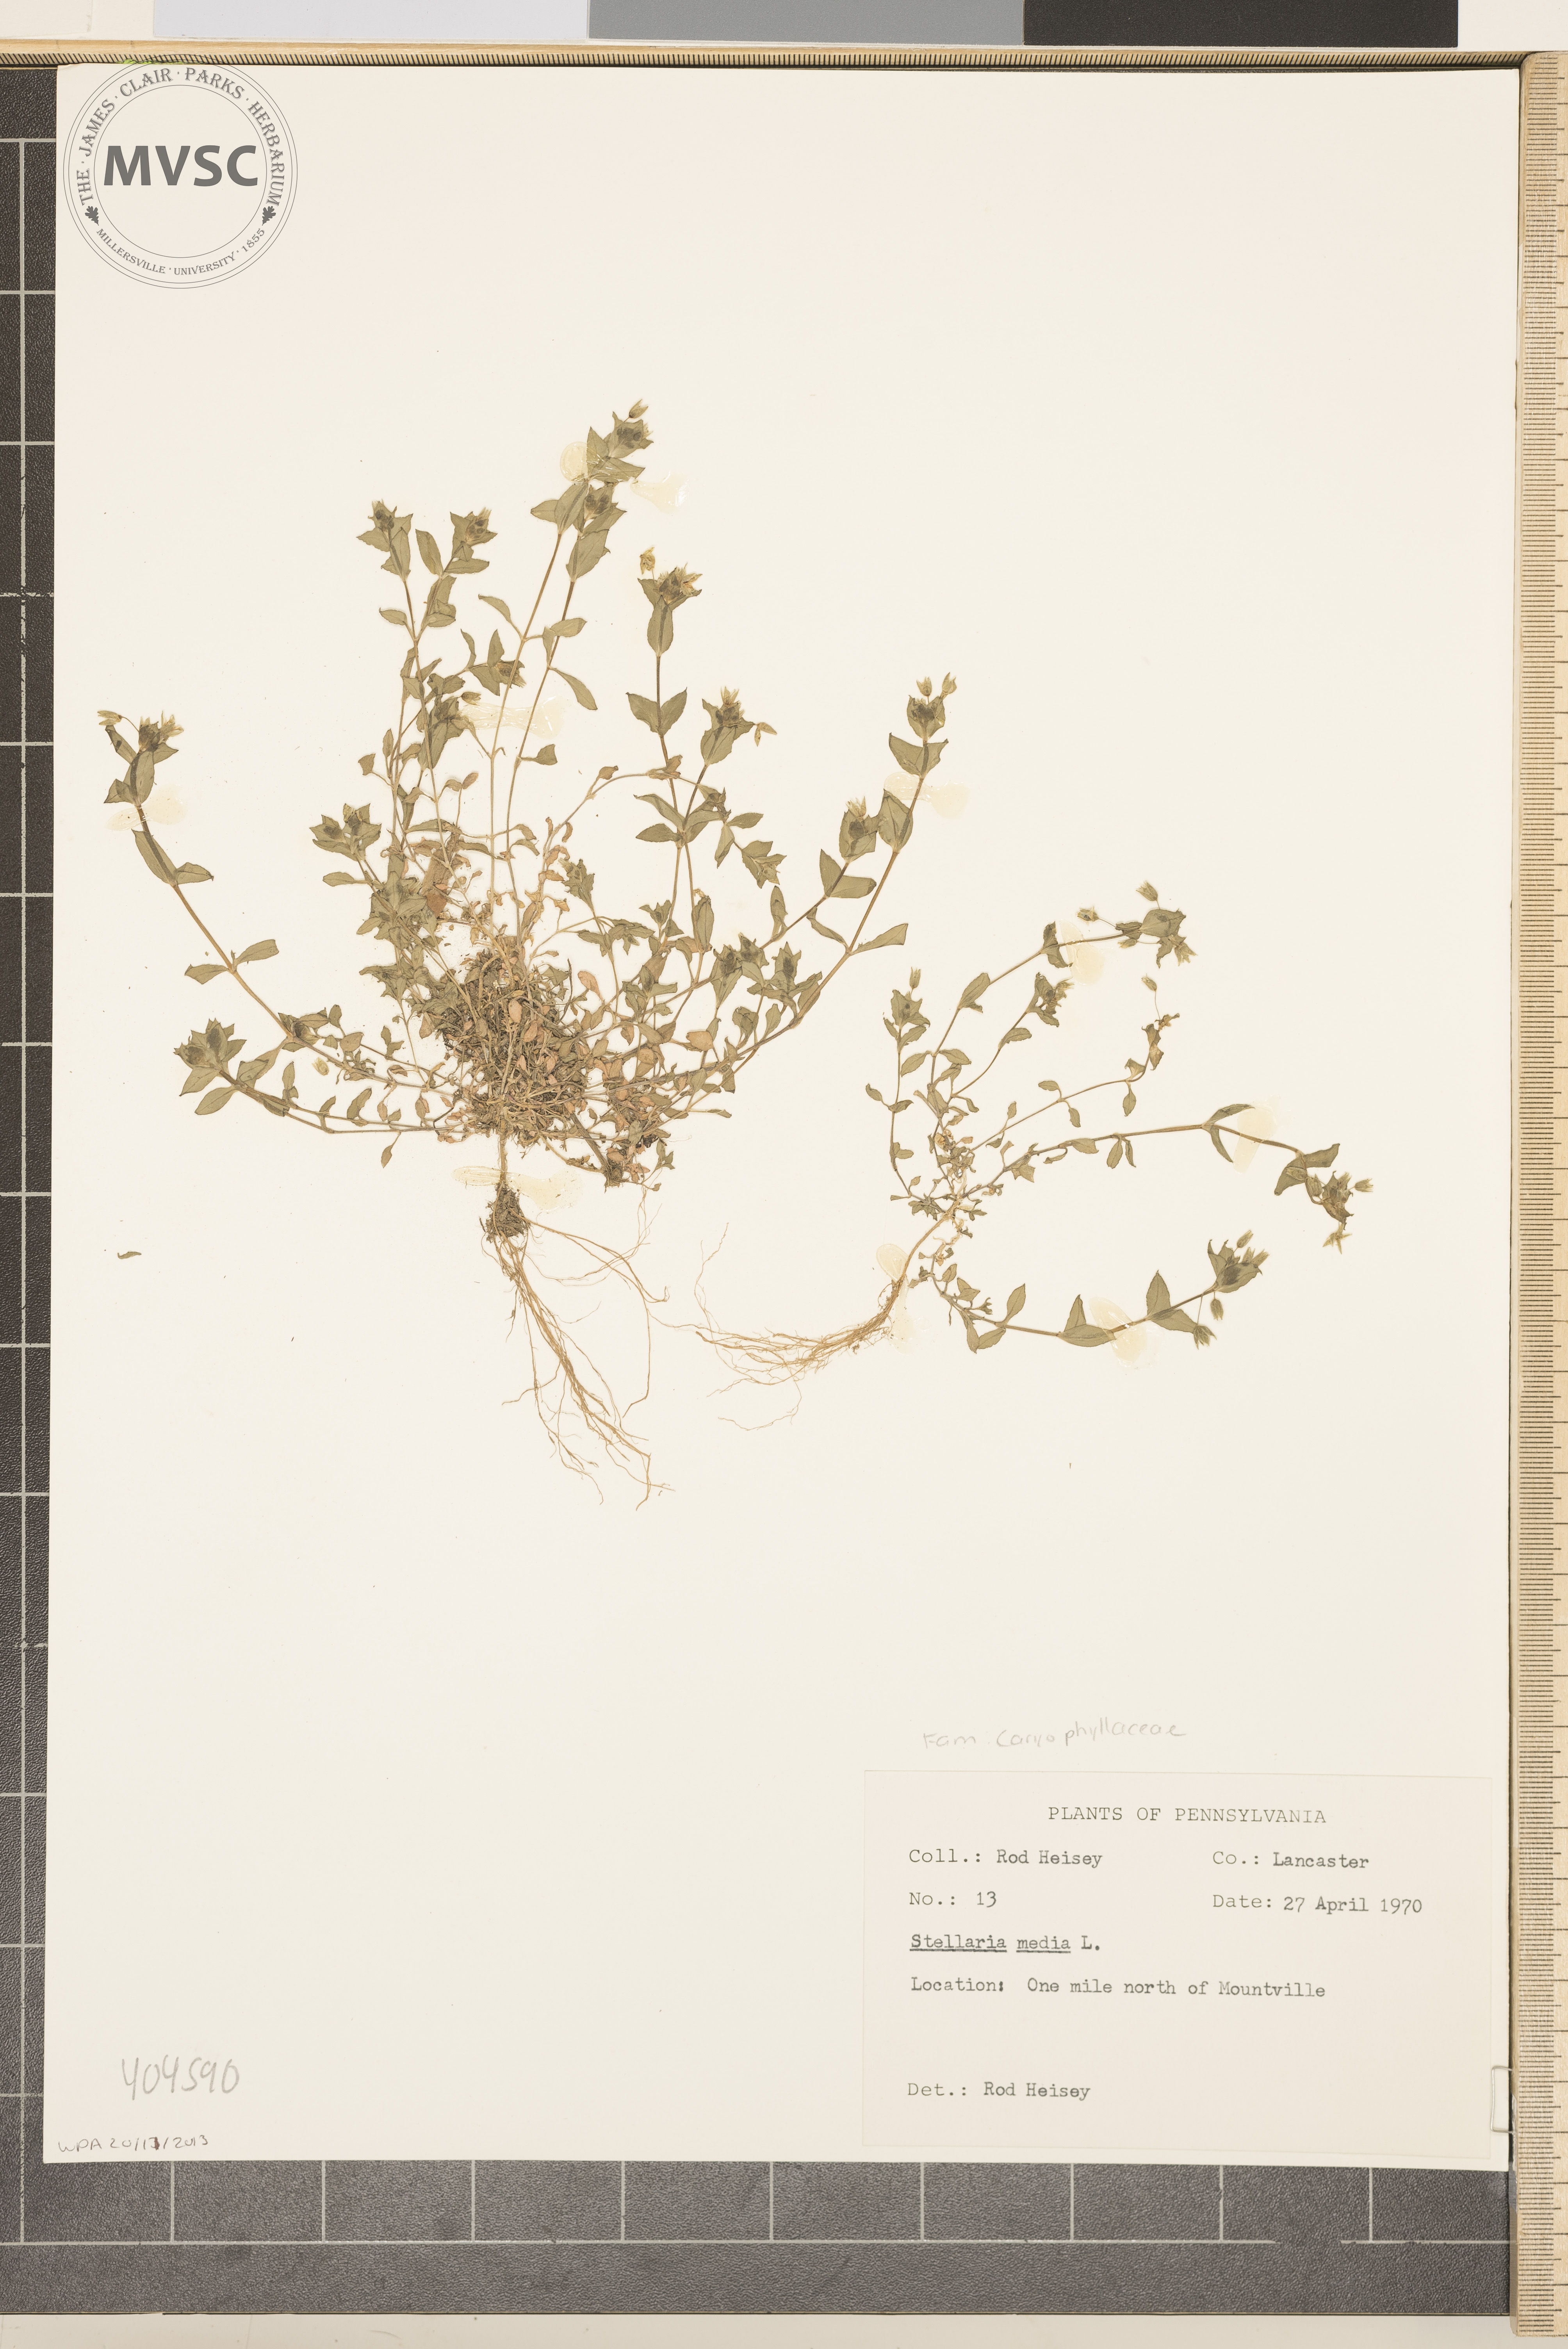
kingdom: Plantae
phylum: Tracheophyta
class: Magnoliopsida
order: Caryophyllales
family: Caryophyllaceae
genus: Stellaria
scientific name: Stellaria media
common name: Common chickweed
